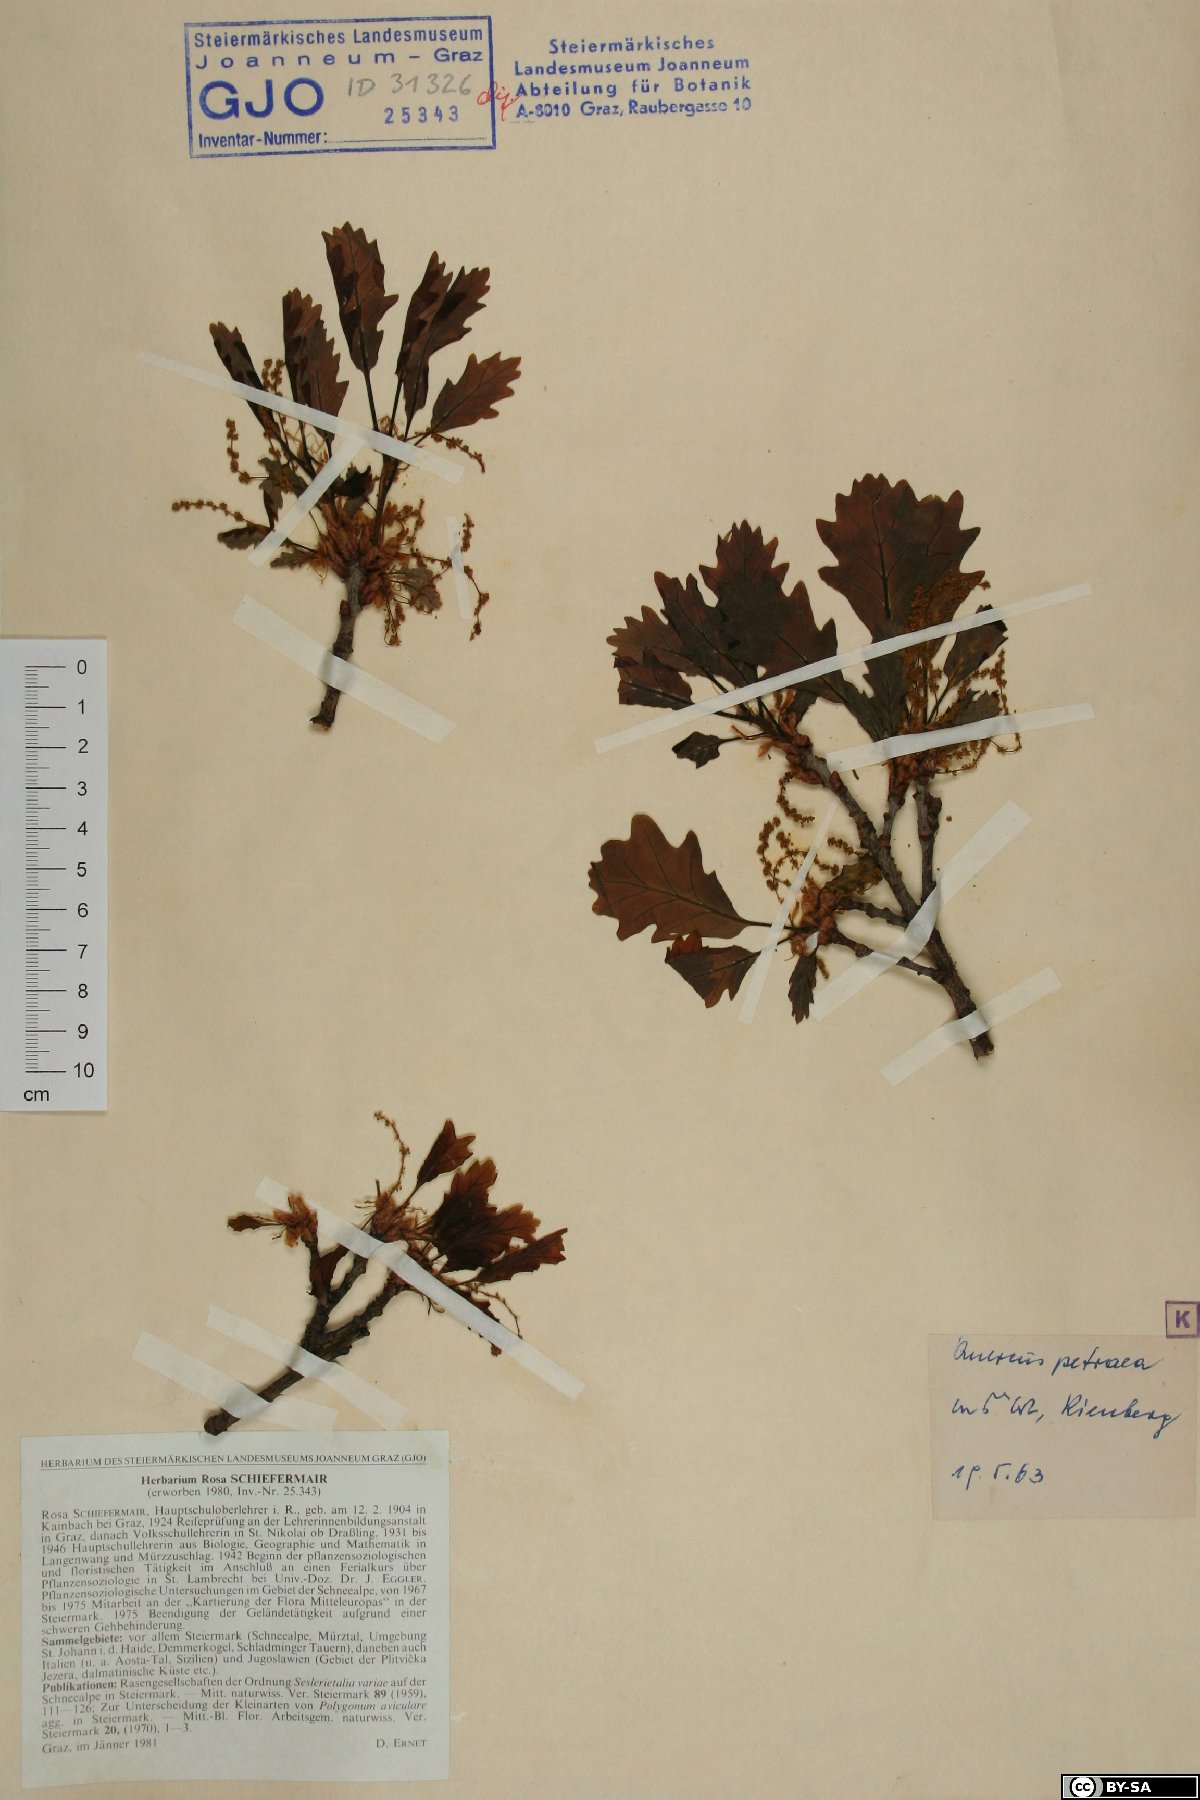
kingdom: Plantae
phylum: Tracheophyta
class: Magnoliopsida
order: Fagales
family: Fagaceae
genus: Quercus
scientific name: Quercus petraea
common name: Sessile oak
